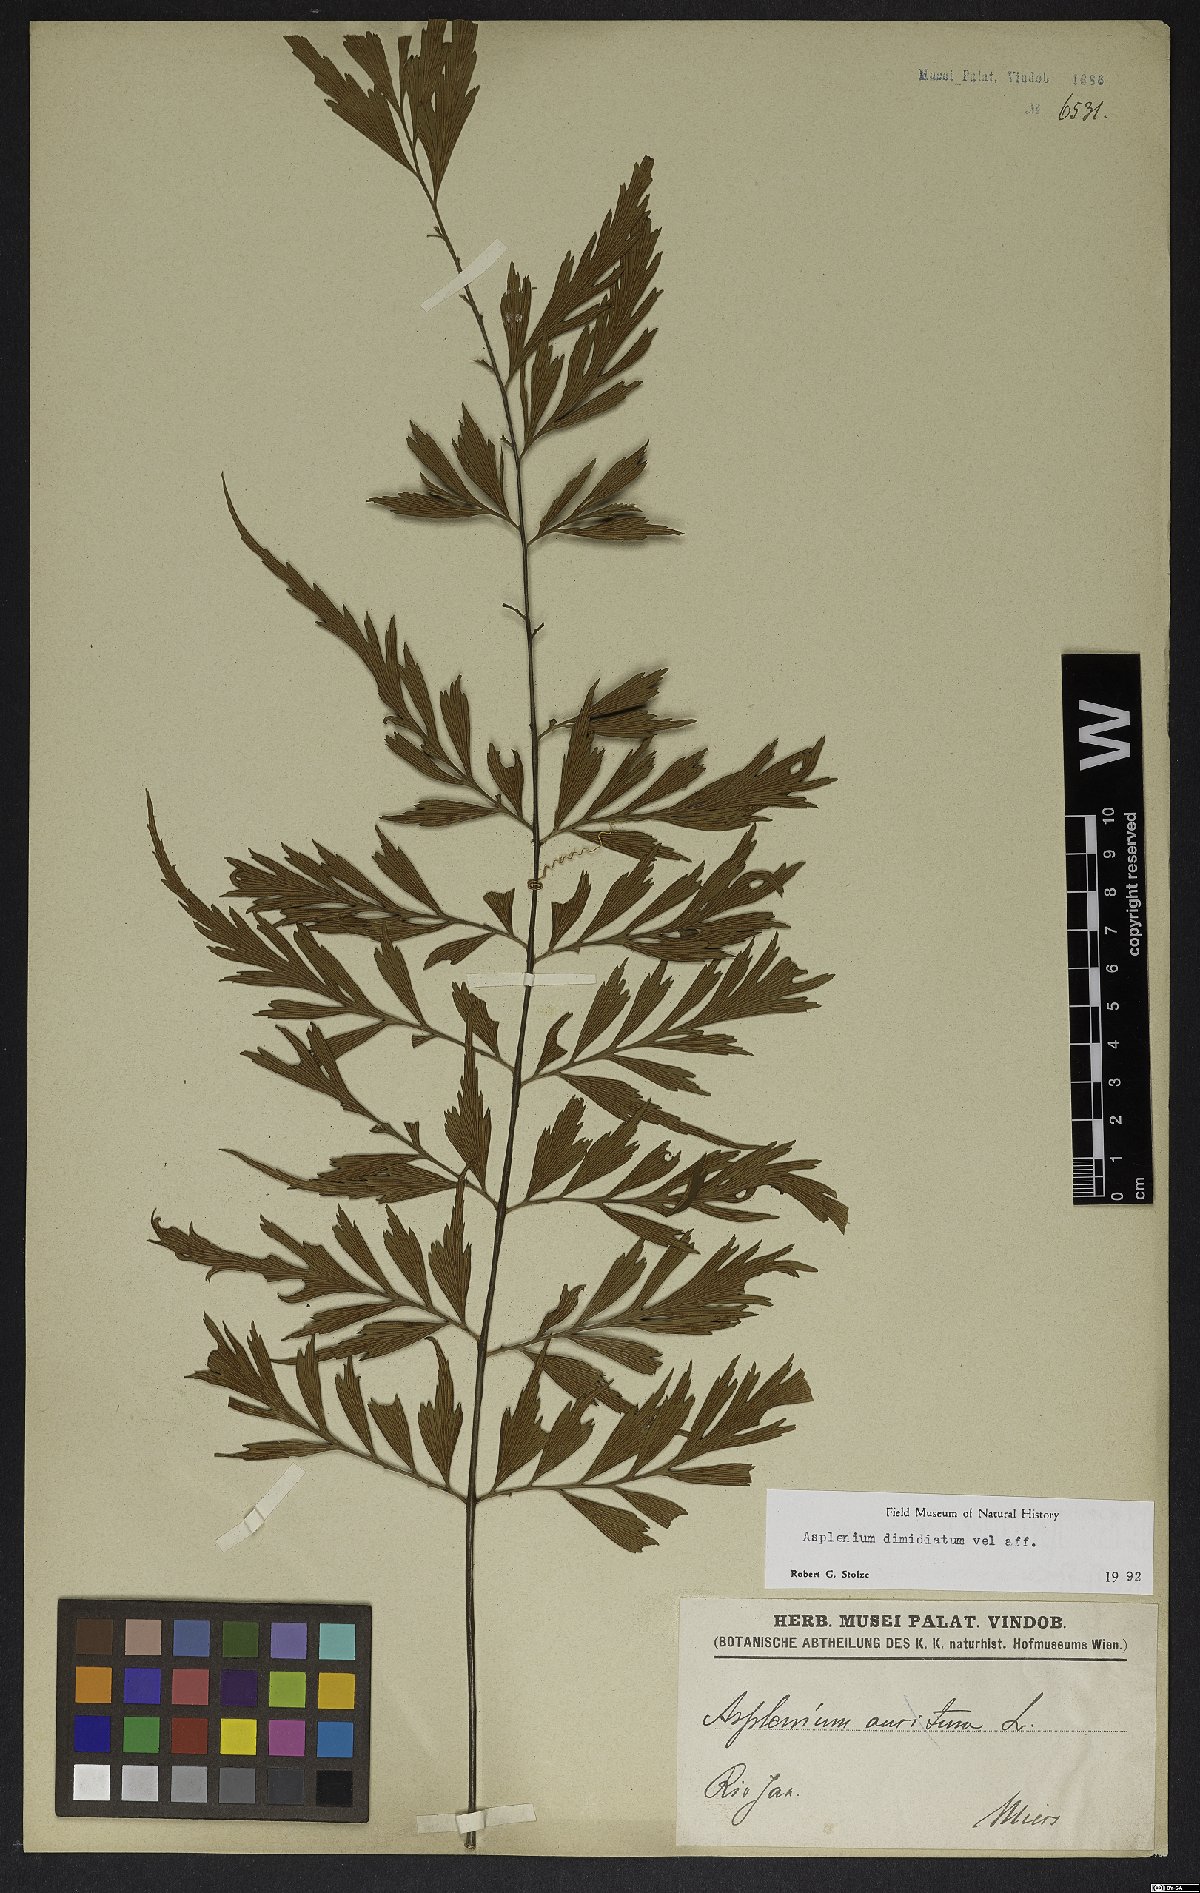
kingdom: Plantae
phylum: Tracheophyta
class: Polypodiopsida
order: Polypodiales
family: Aspleniaceae
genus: Asplenium
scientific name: Asplenium jaundeense
